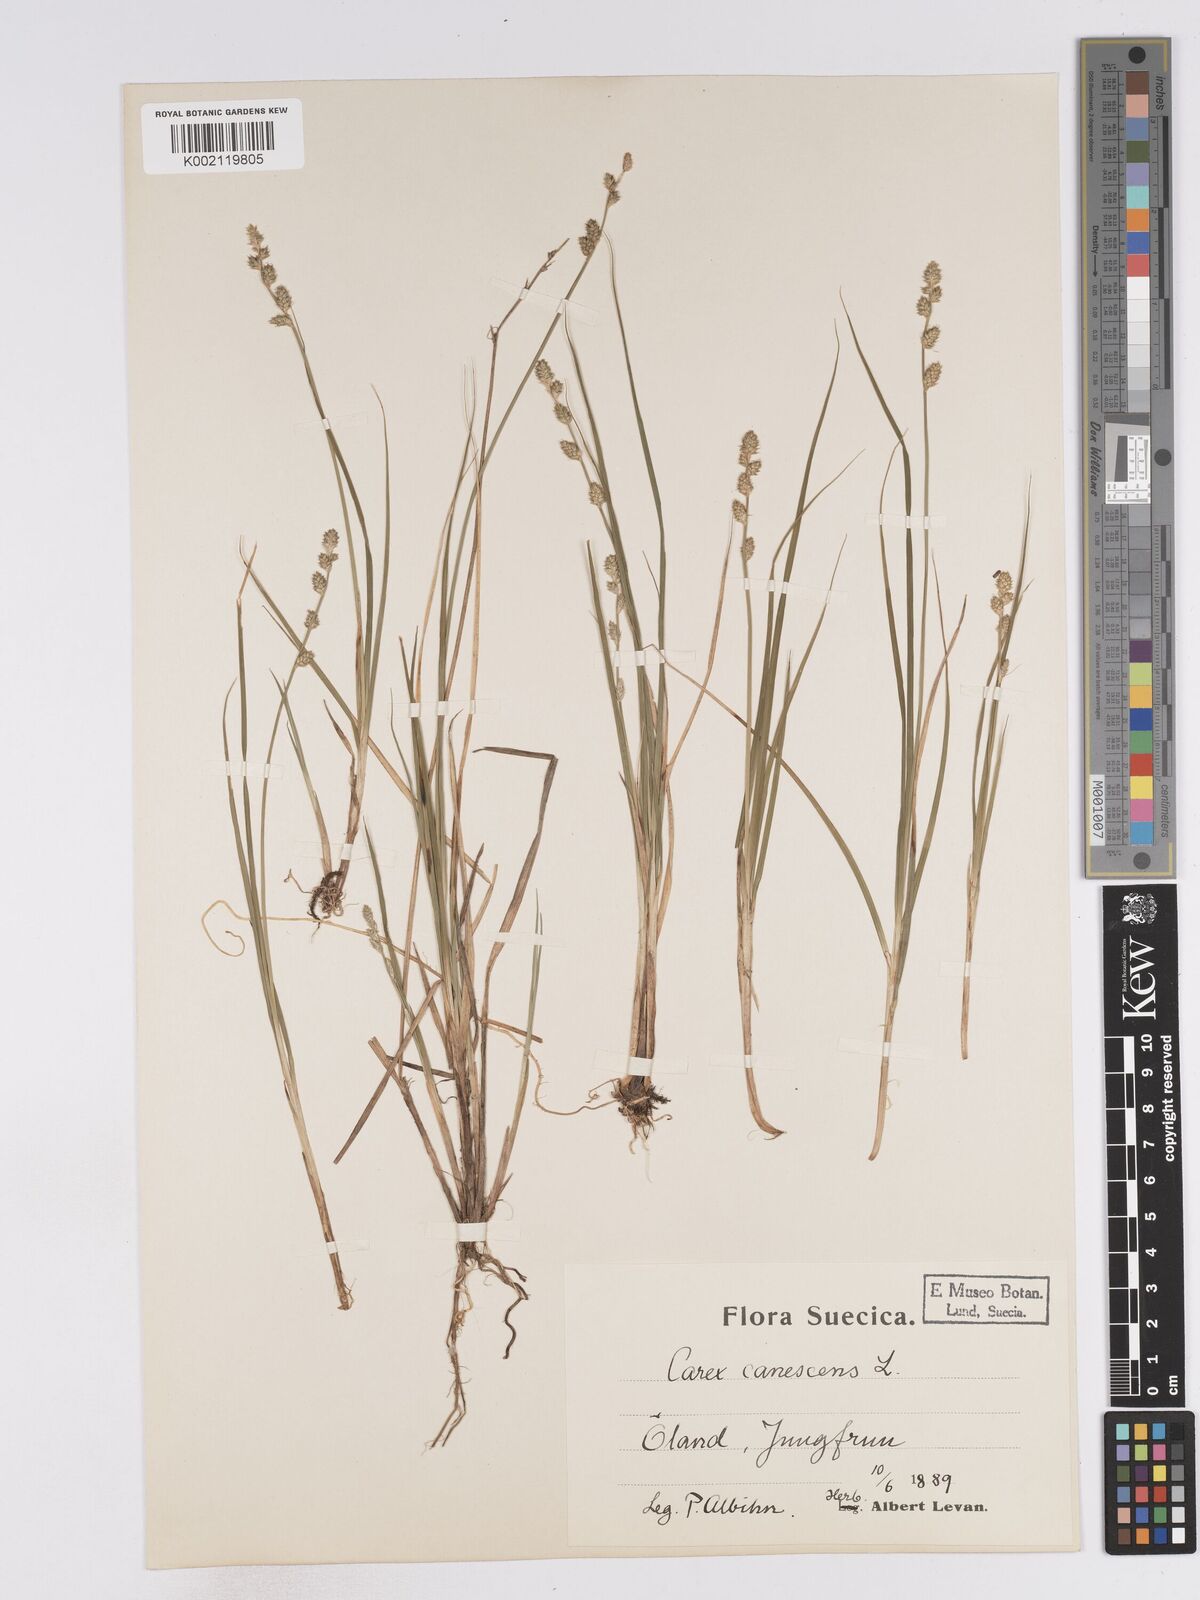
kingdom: Plantae
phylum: Tracheophyta
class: Liliopsida
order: Poales
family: Cyperaceae
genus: Carex
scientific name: Carex curta
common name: White sedge
